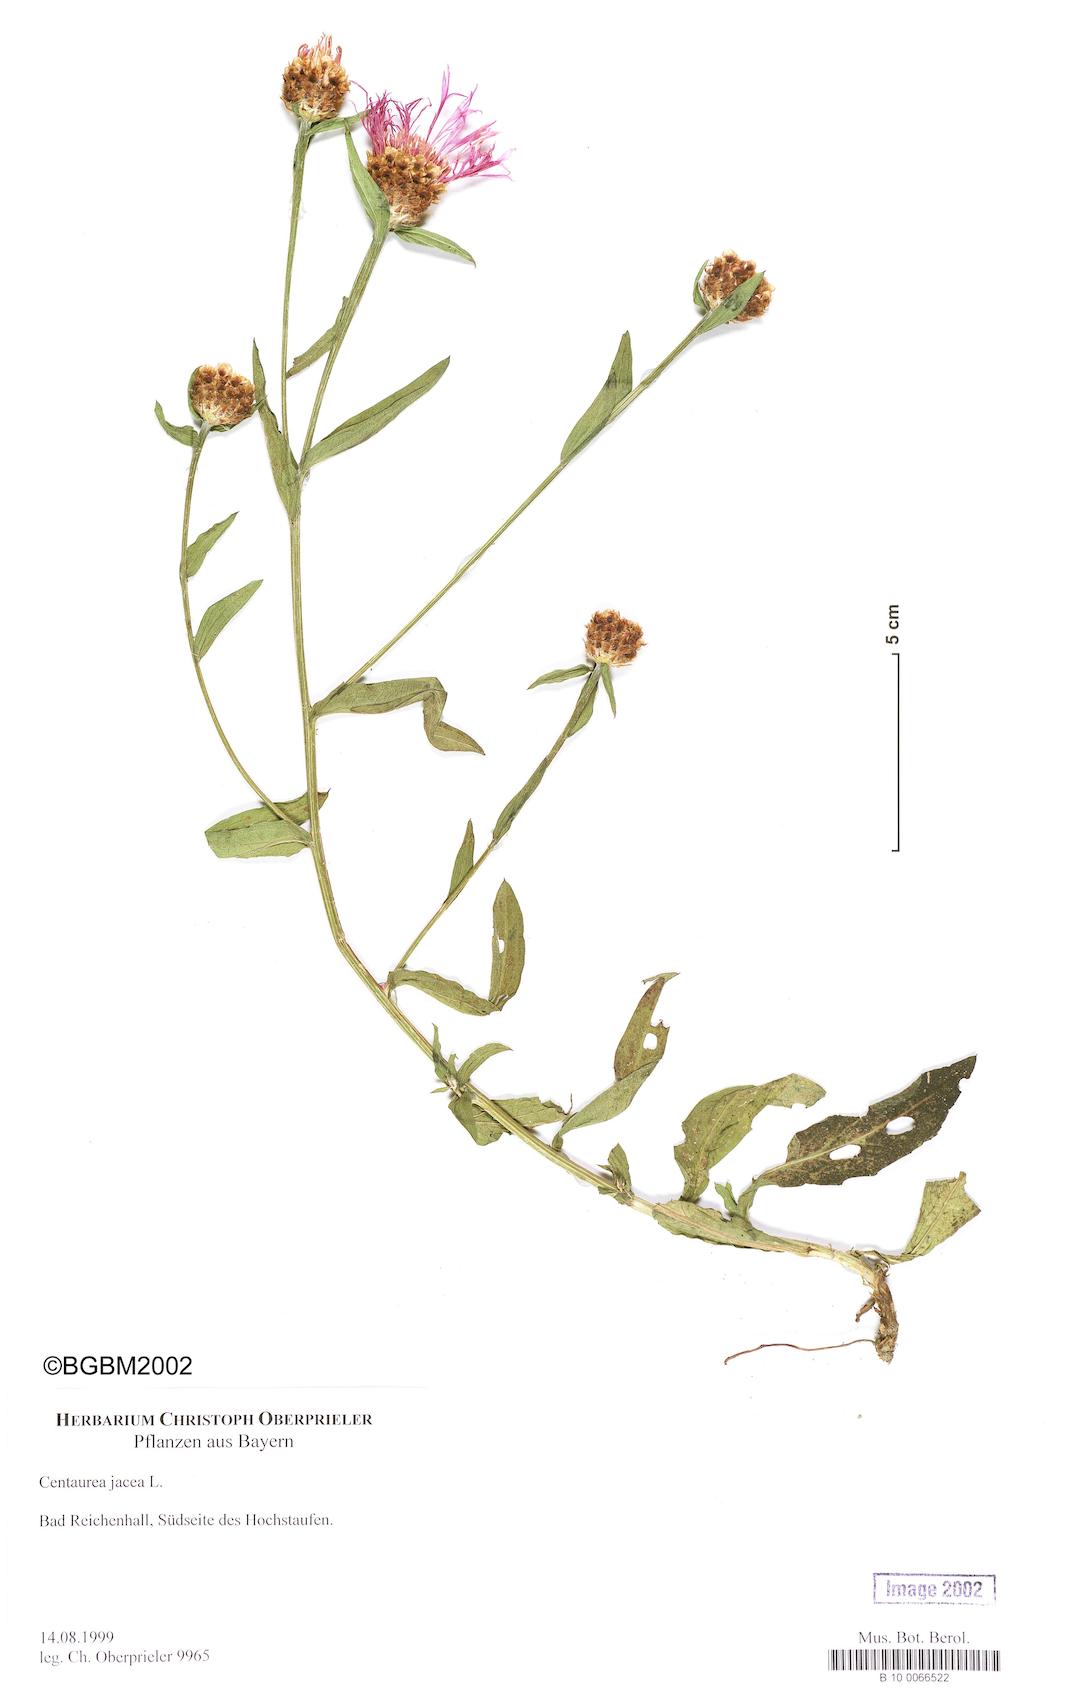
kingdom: Plantae
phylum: Tracheophyta
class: Magnoliopsida
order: Asterales
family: Asteraceae
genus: Centaurea
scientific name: Centaurea jacea
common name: Brown knapweed
